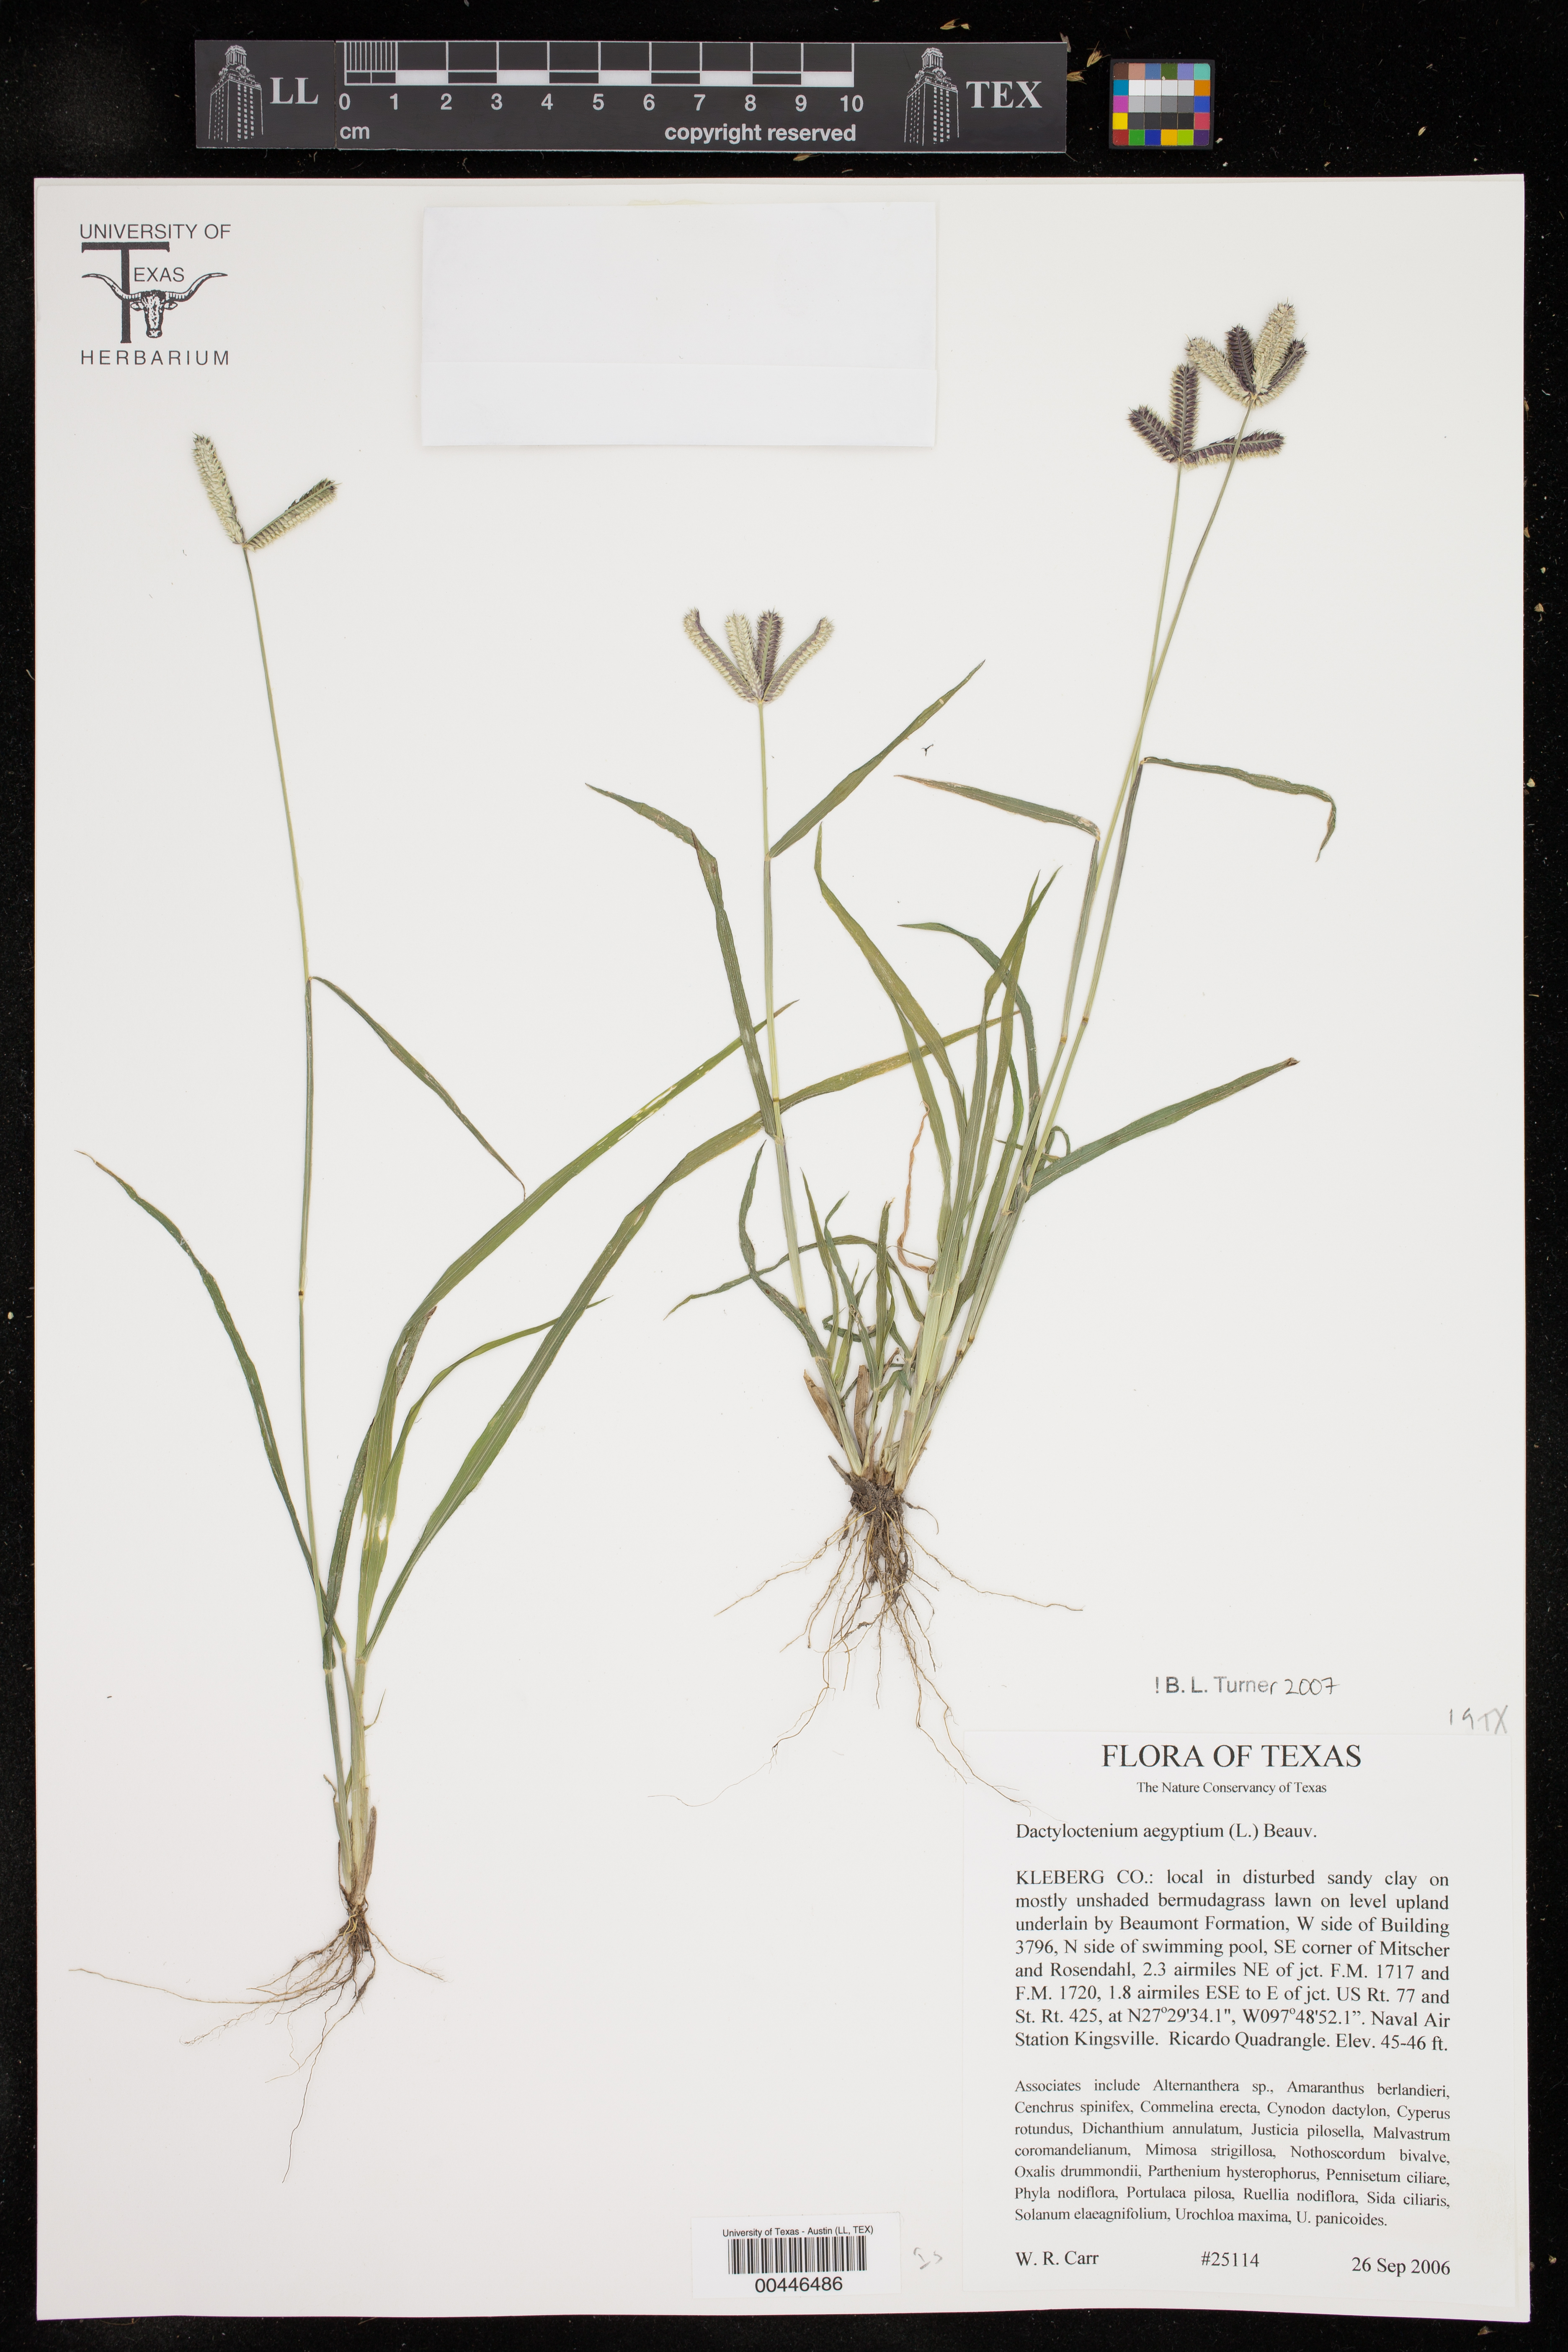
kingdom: Plantae
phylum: Tracheophyta
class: Liliopsida
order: Poales
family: Poaceae
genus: Dactyloctenium
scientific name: Dactyloctenium aegyptium
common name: Egyptian grass
